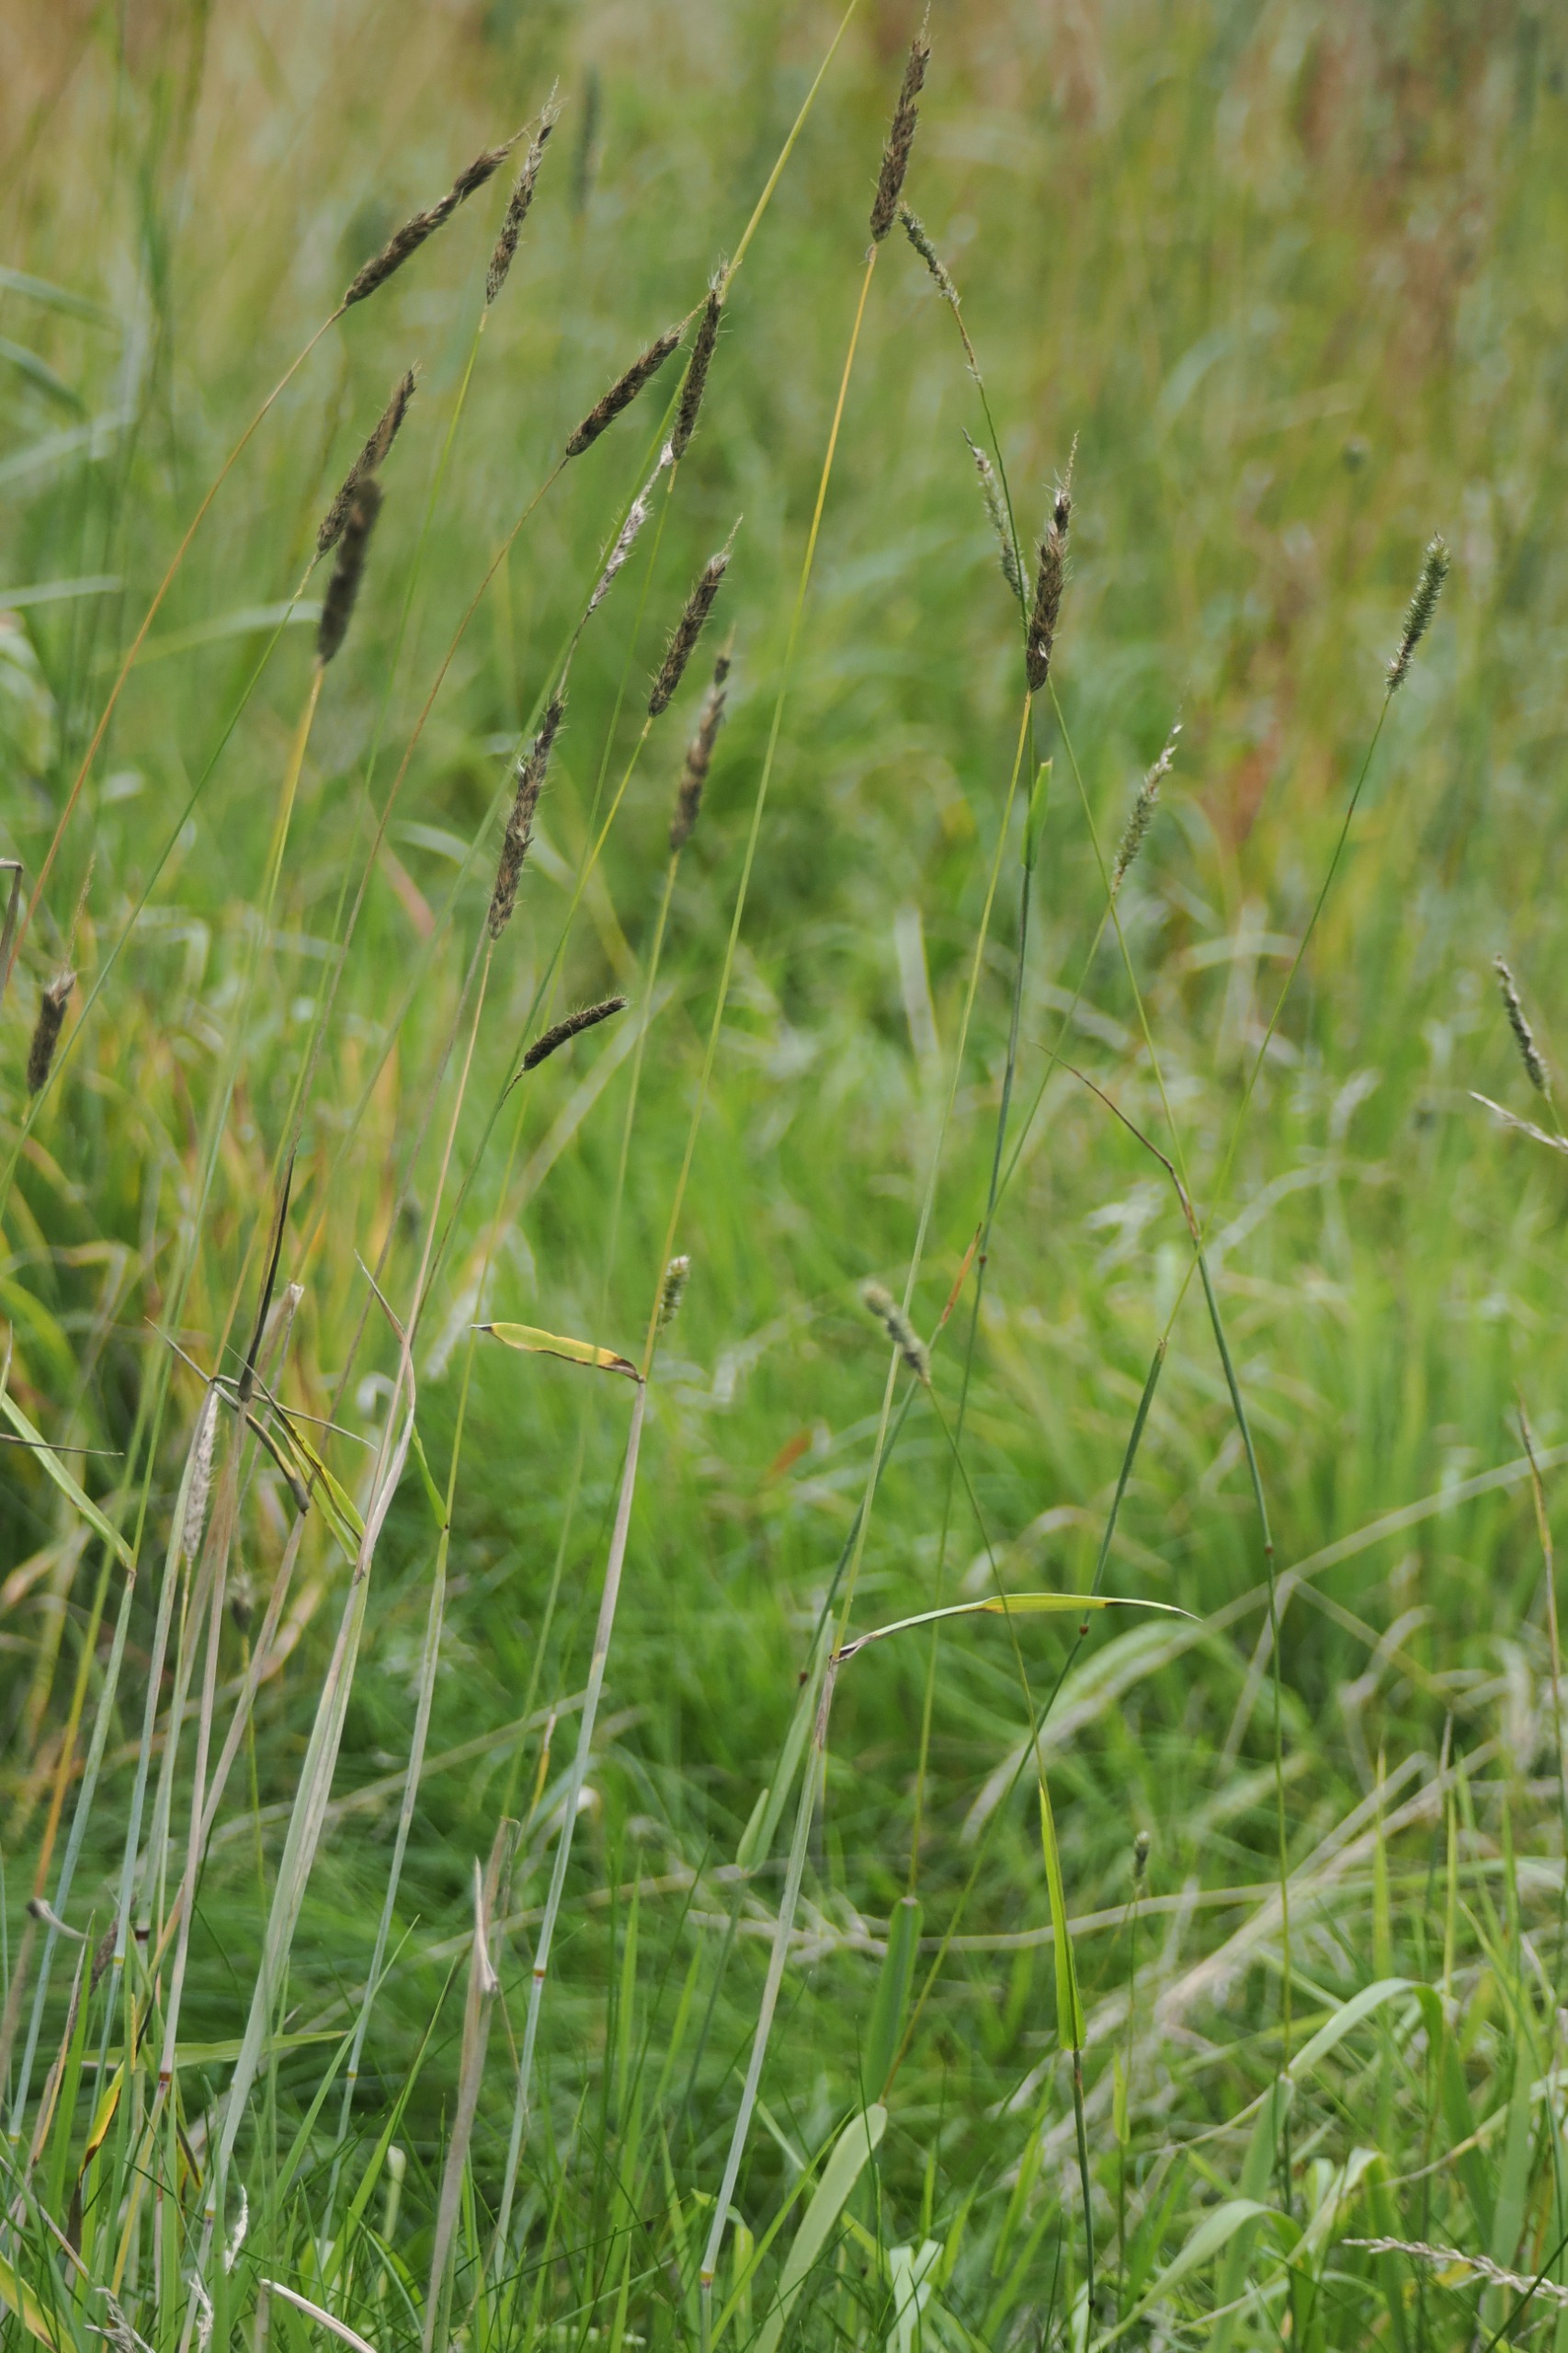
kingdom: Plantae
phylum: Tracheophyta
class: Liliopsida
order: Poales
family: Poaceae
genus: Alopecurus
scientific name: Alopecurus pratensis
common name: Eng-rævehale
